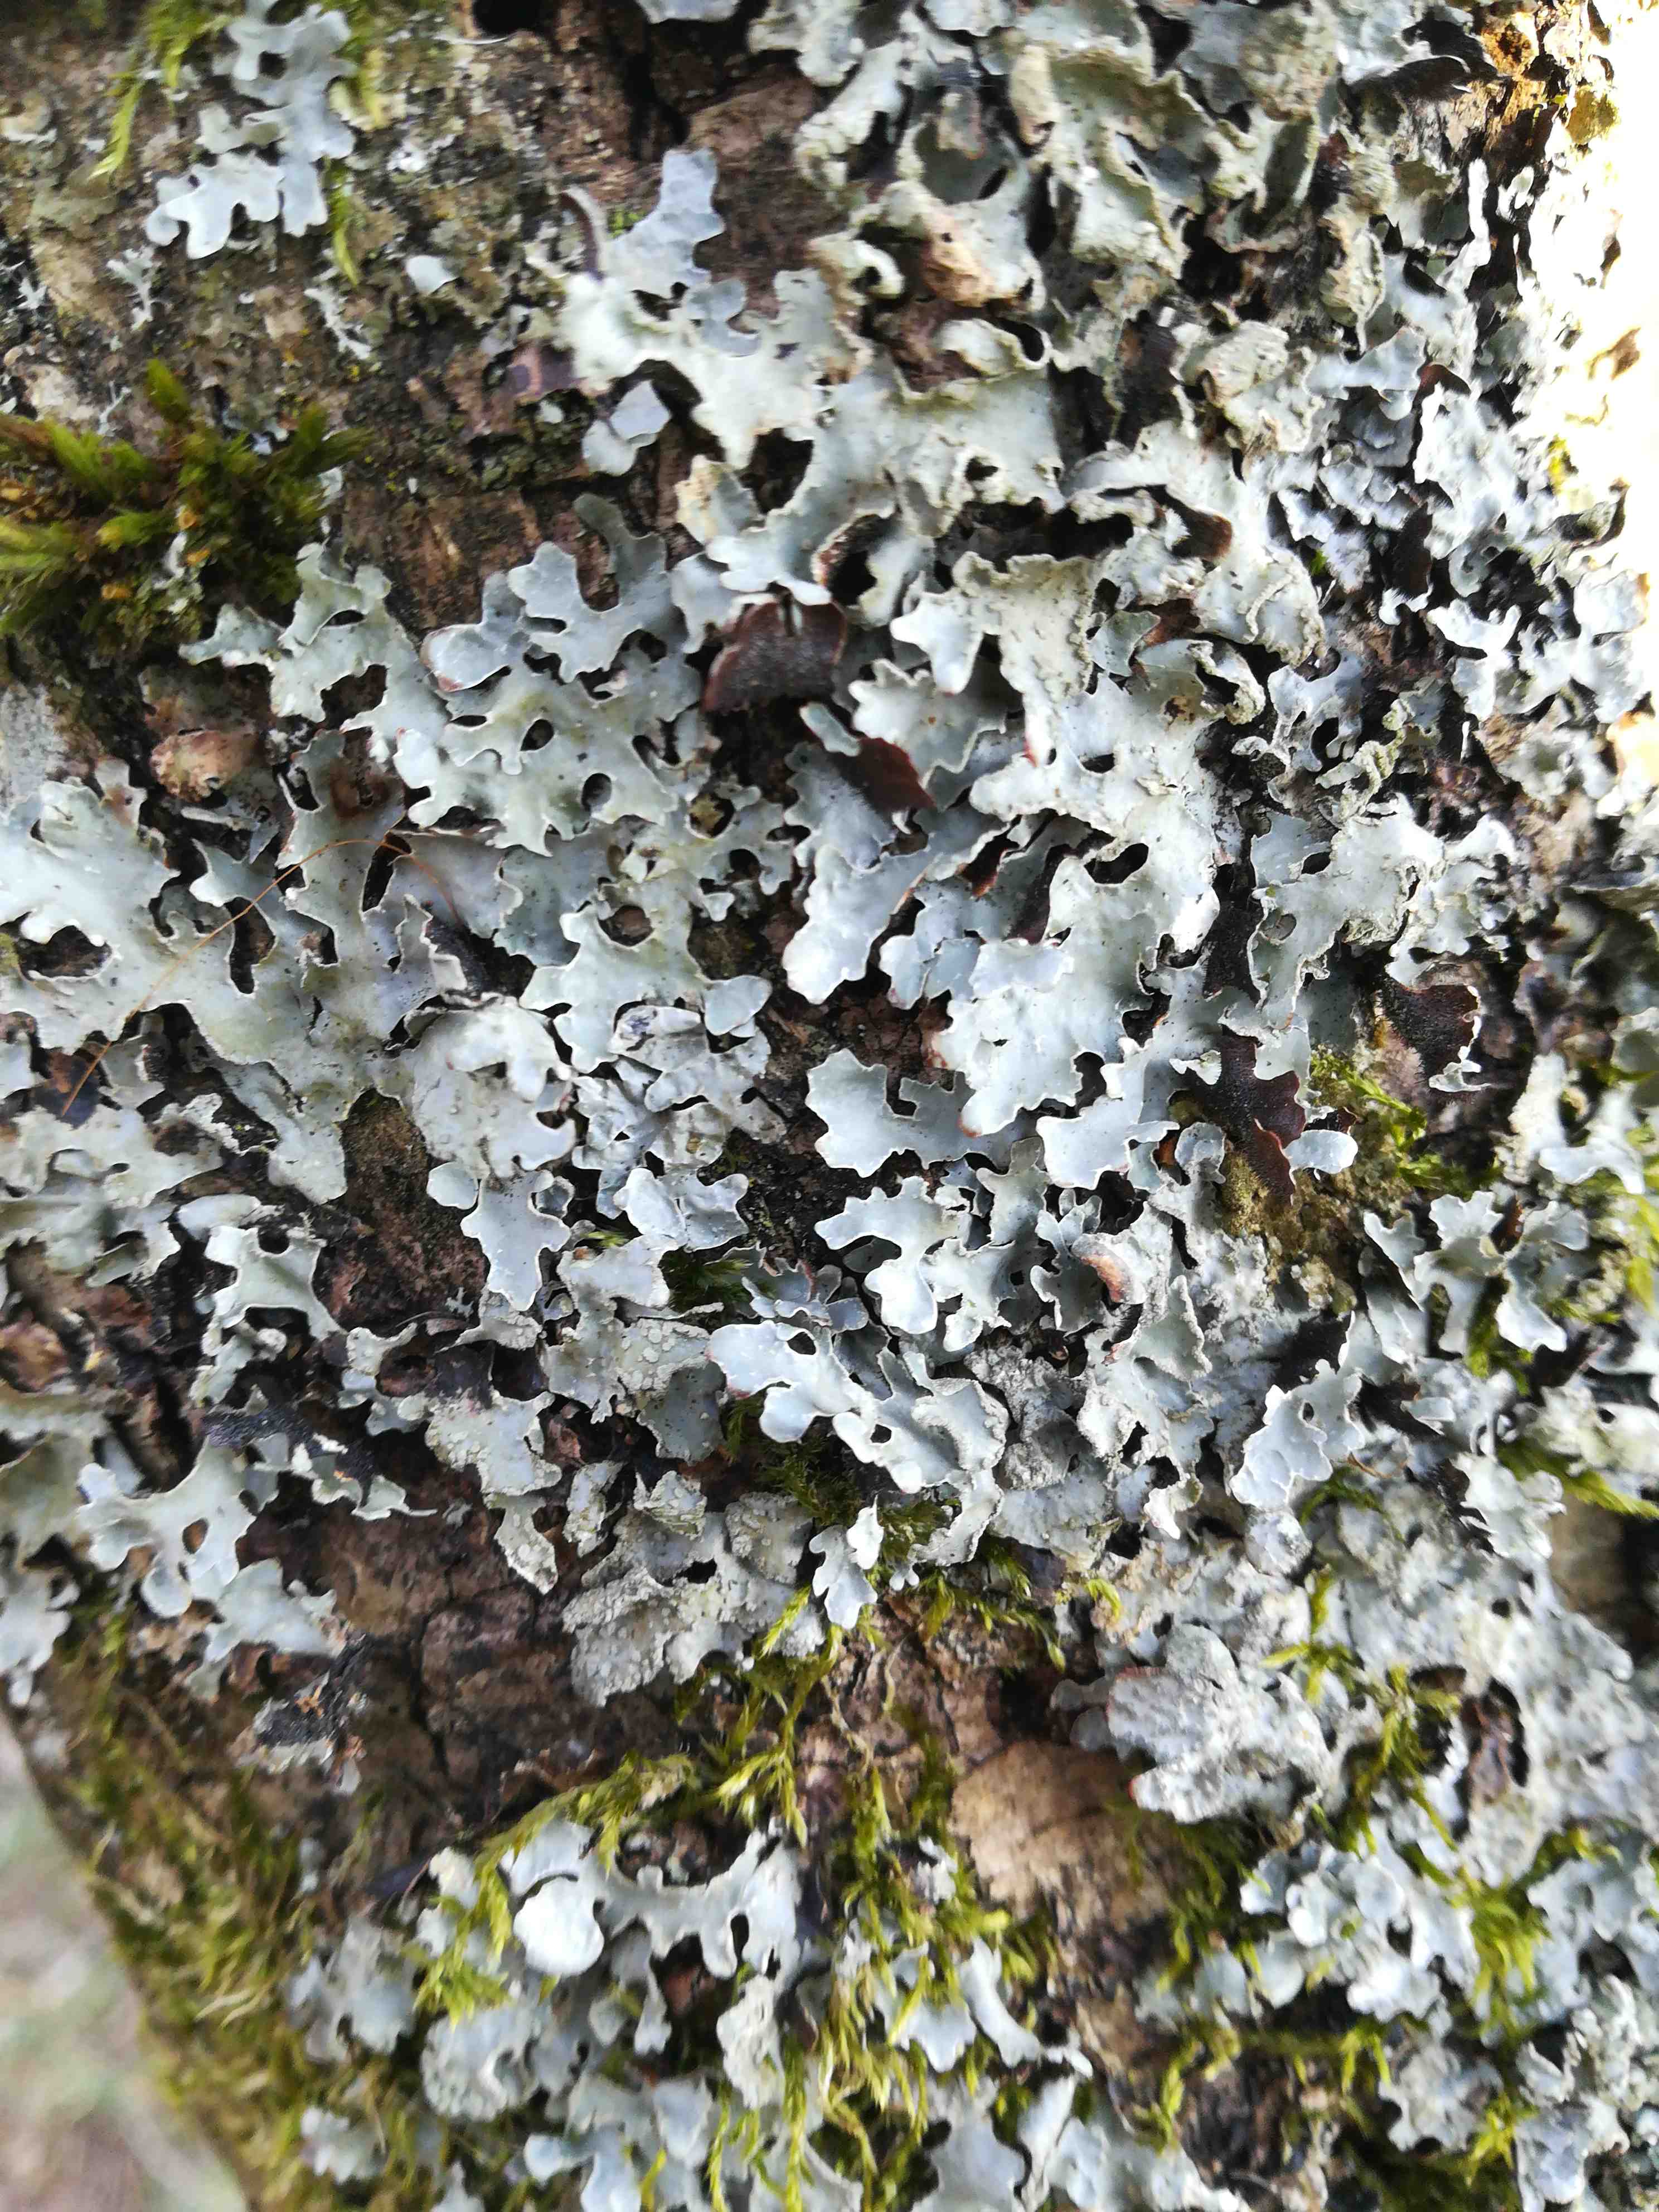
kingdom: Fungi
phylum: Ascomycota
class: Lecanoromycetes
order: Lecanorales
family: Parmeliaceae
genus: Parmelia
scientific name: Parmelia sulcata
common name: rynket skållav
